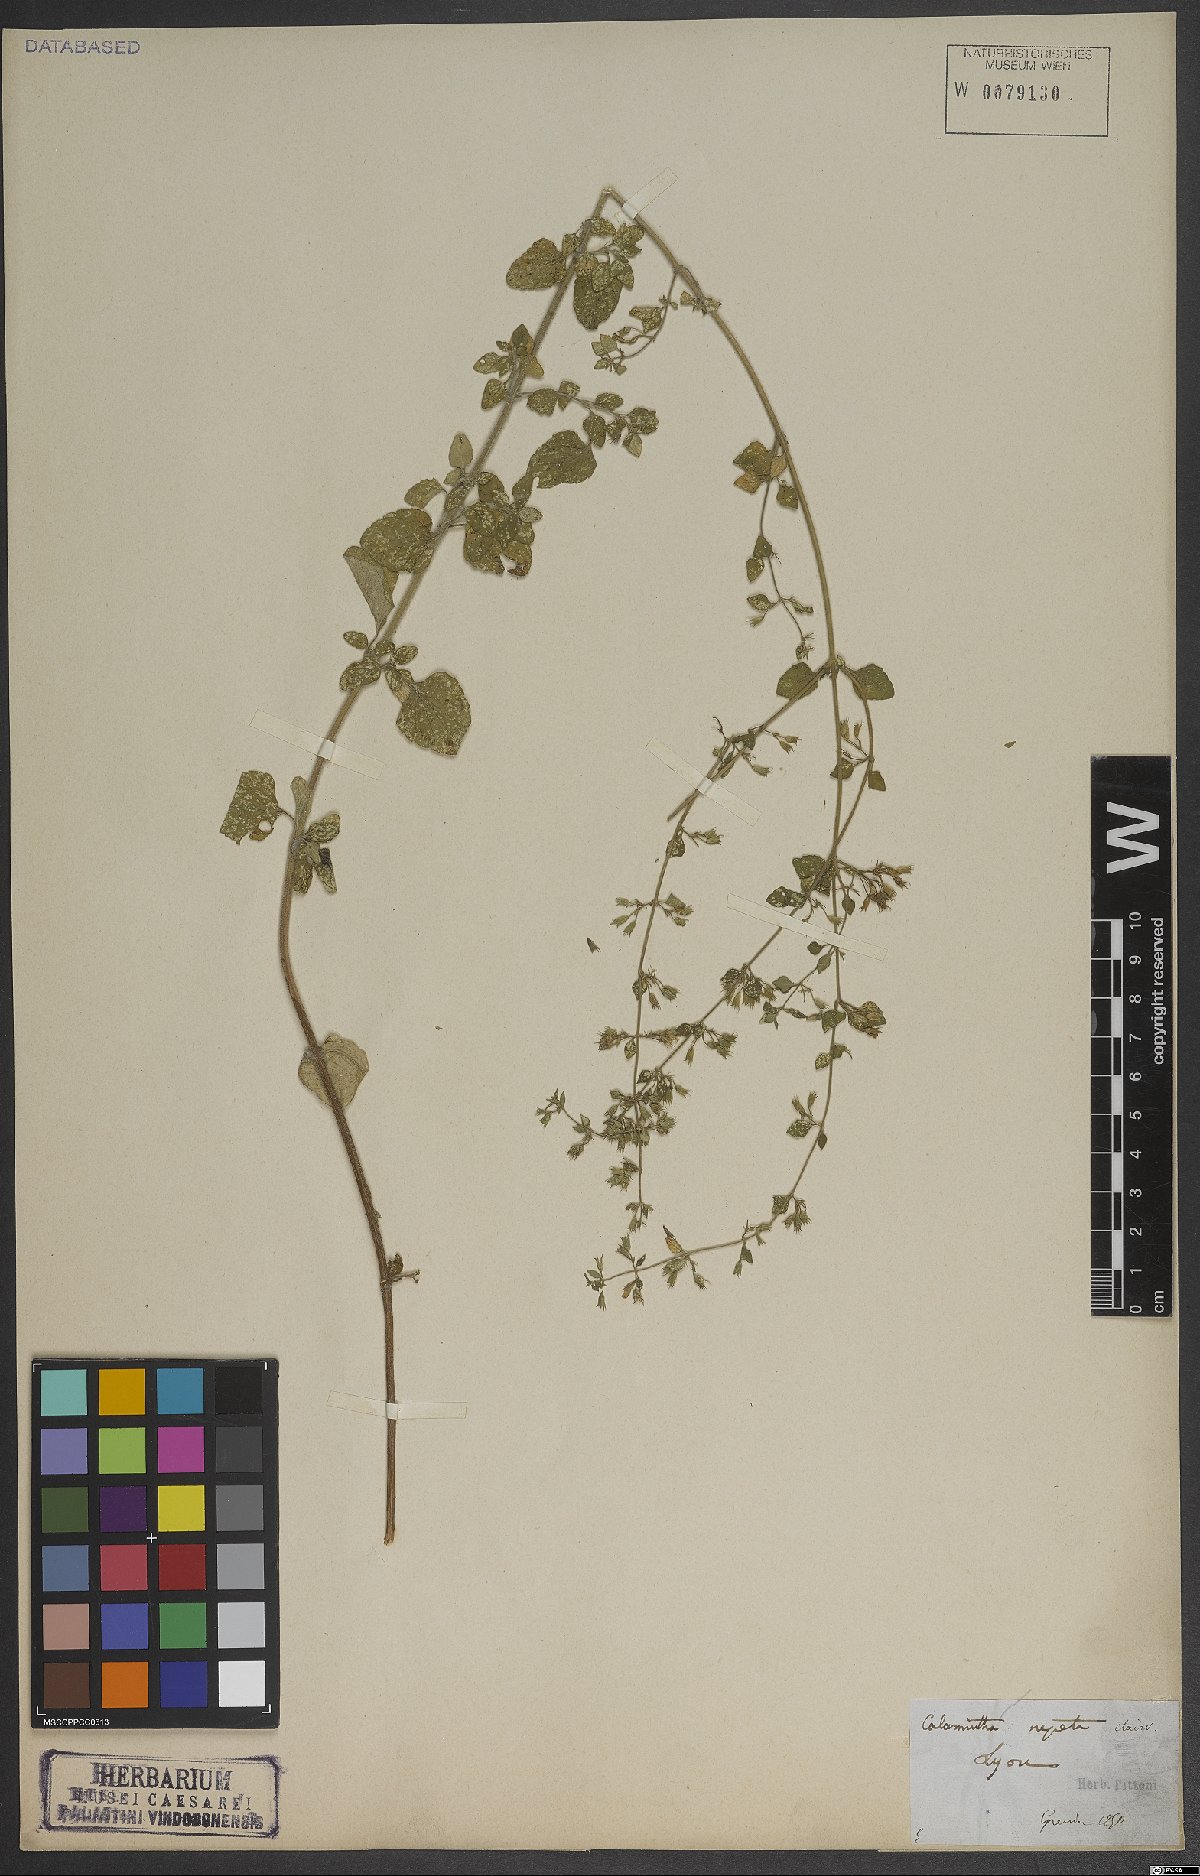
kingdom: Plantae
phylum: Tracheophyta
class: Magnoliopsida
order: Lamiales
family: Lamiaceae
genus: Clinopodium
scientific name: Clinopodium nepeta
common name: Lesser calamint
